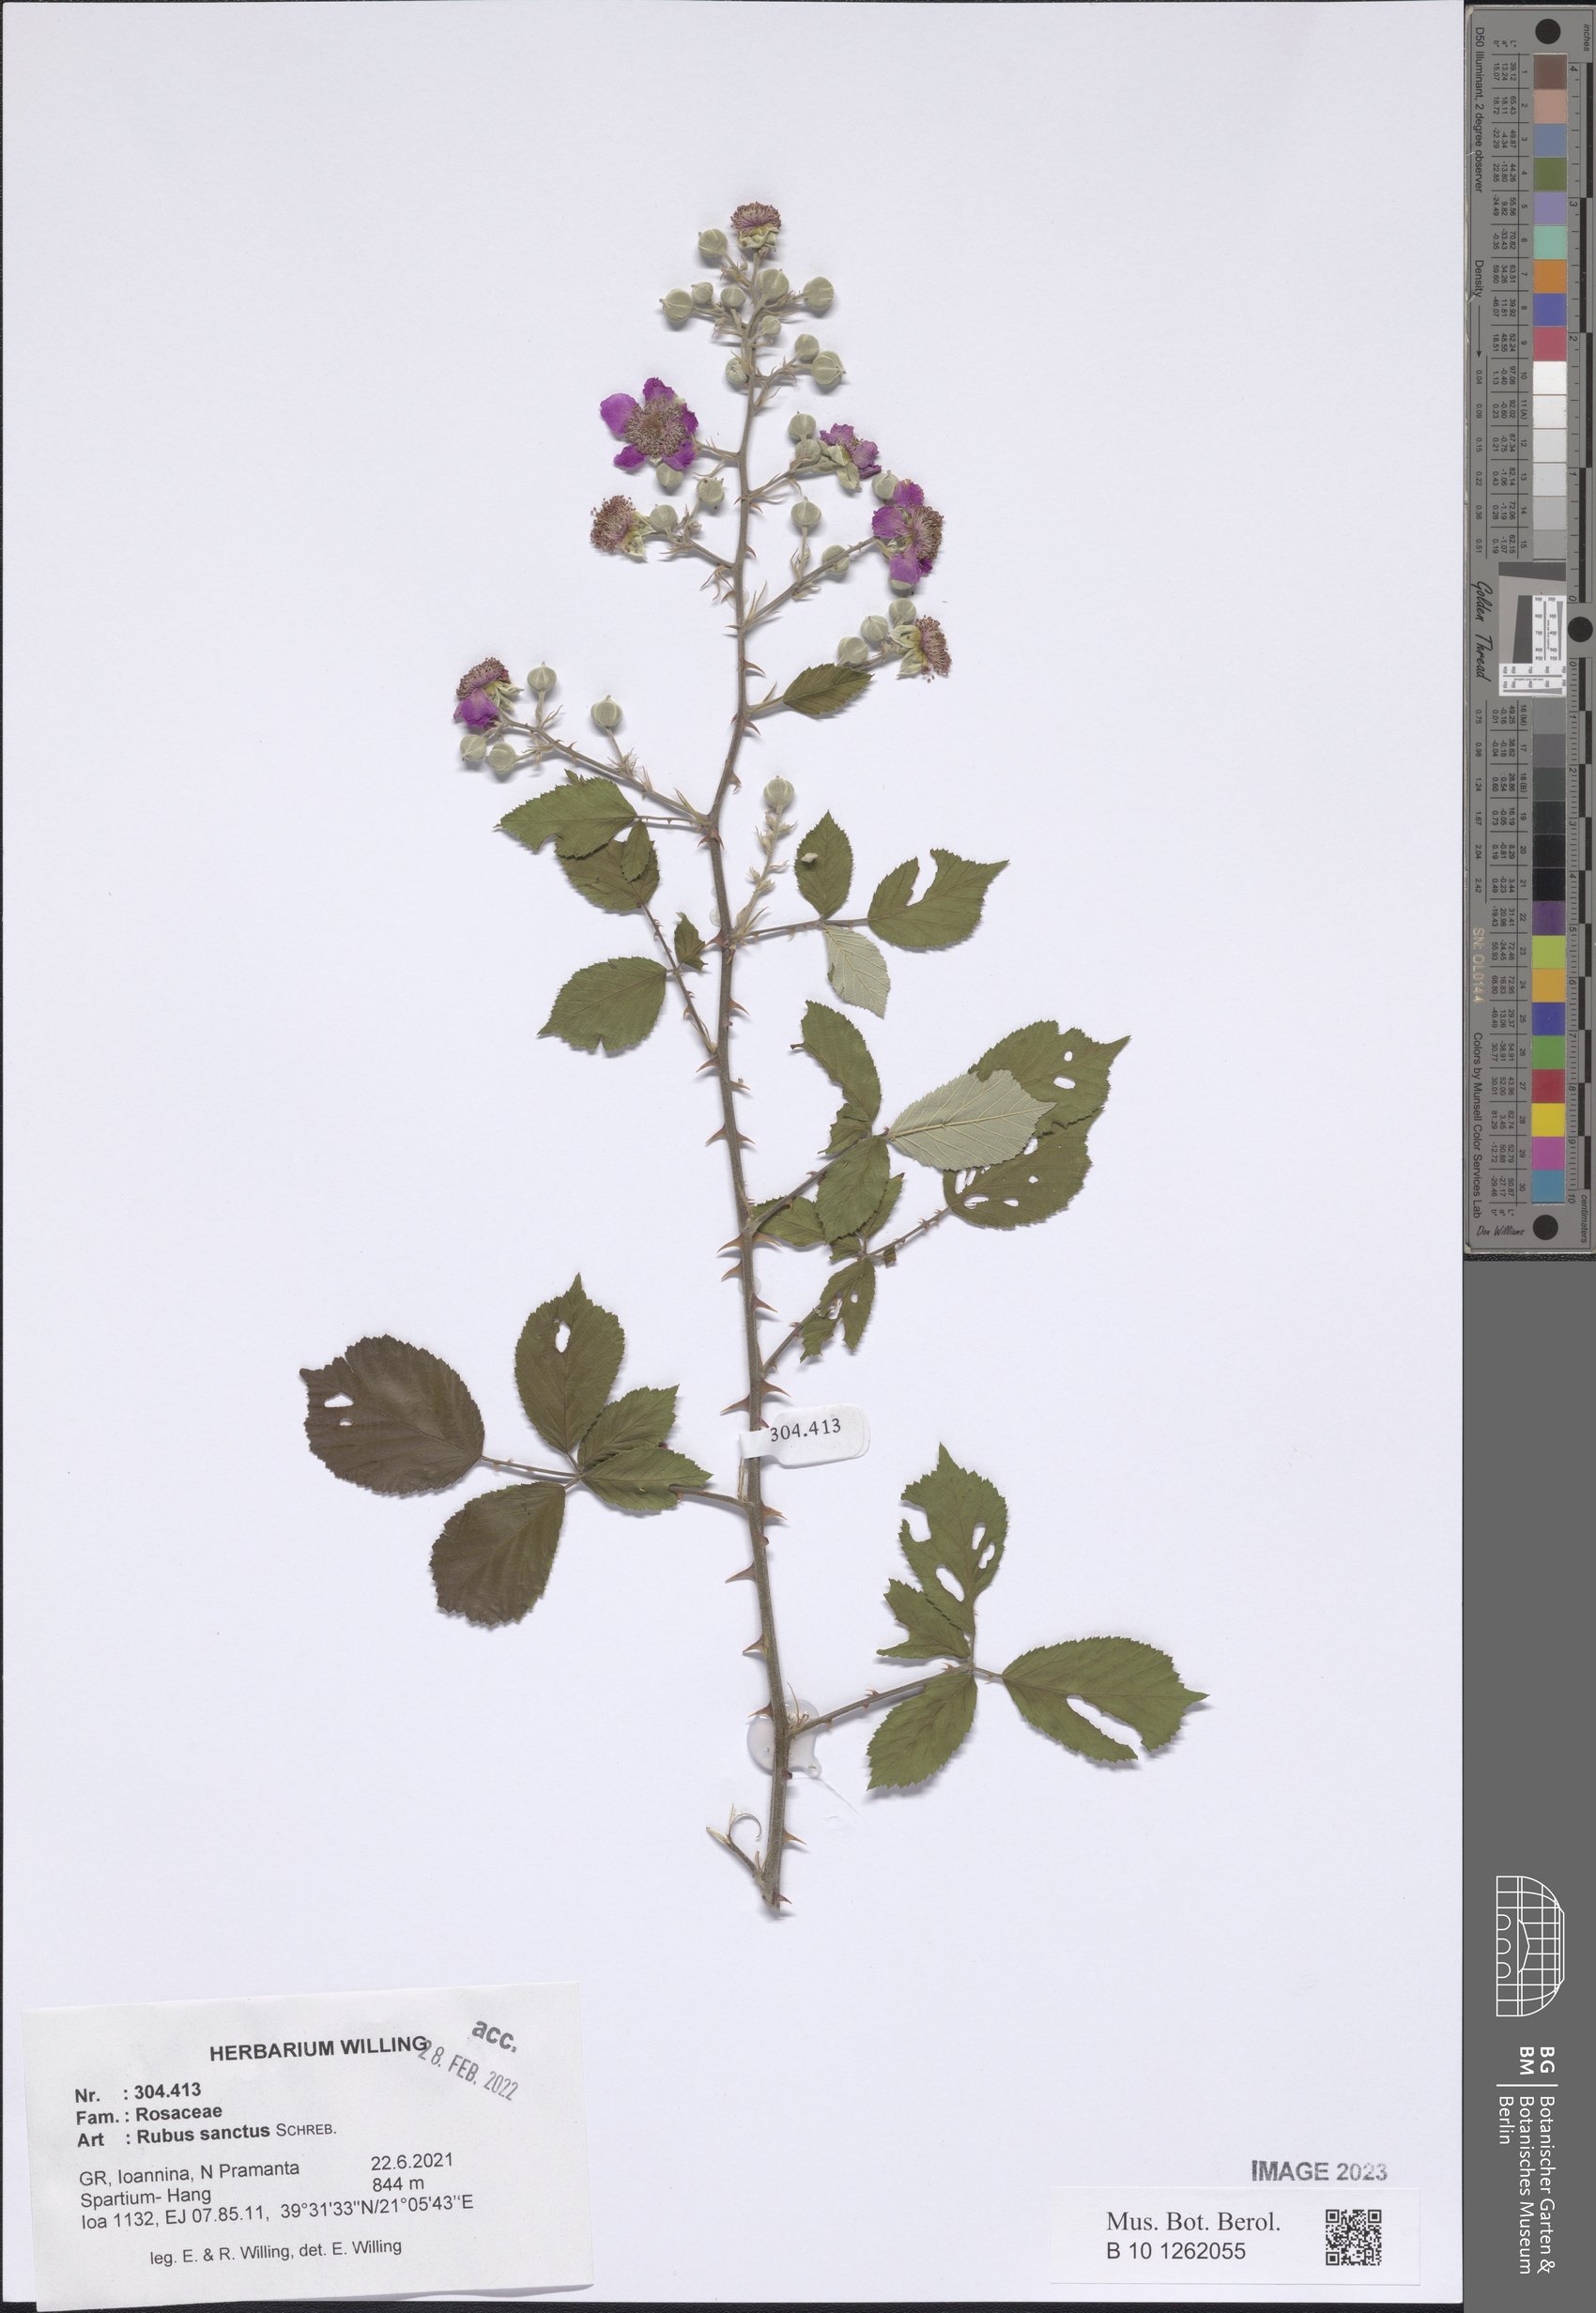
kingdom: Plantae
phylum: Tracheophyta
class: Magnoliopsida
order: Rosales
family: Rosaceae
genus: Rubus
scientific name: Rubus sanctus
